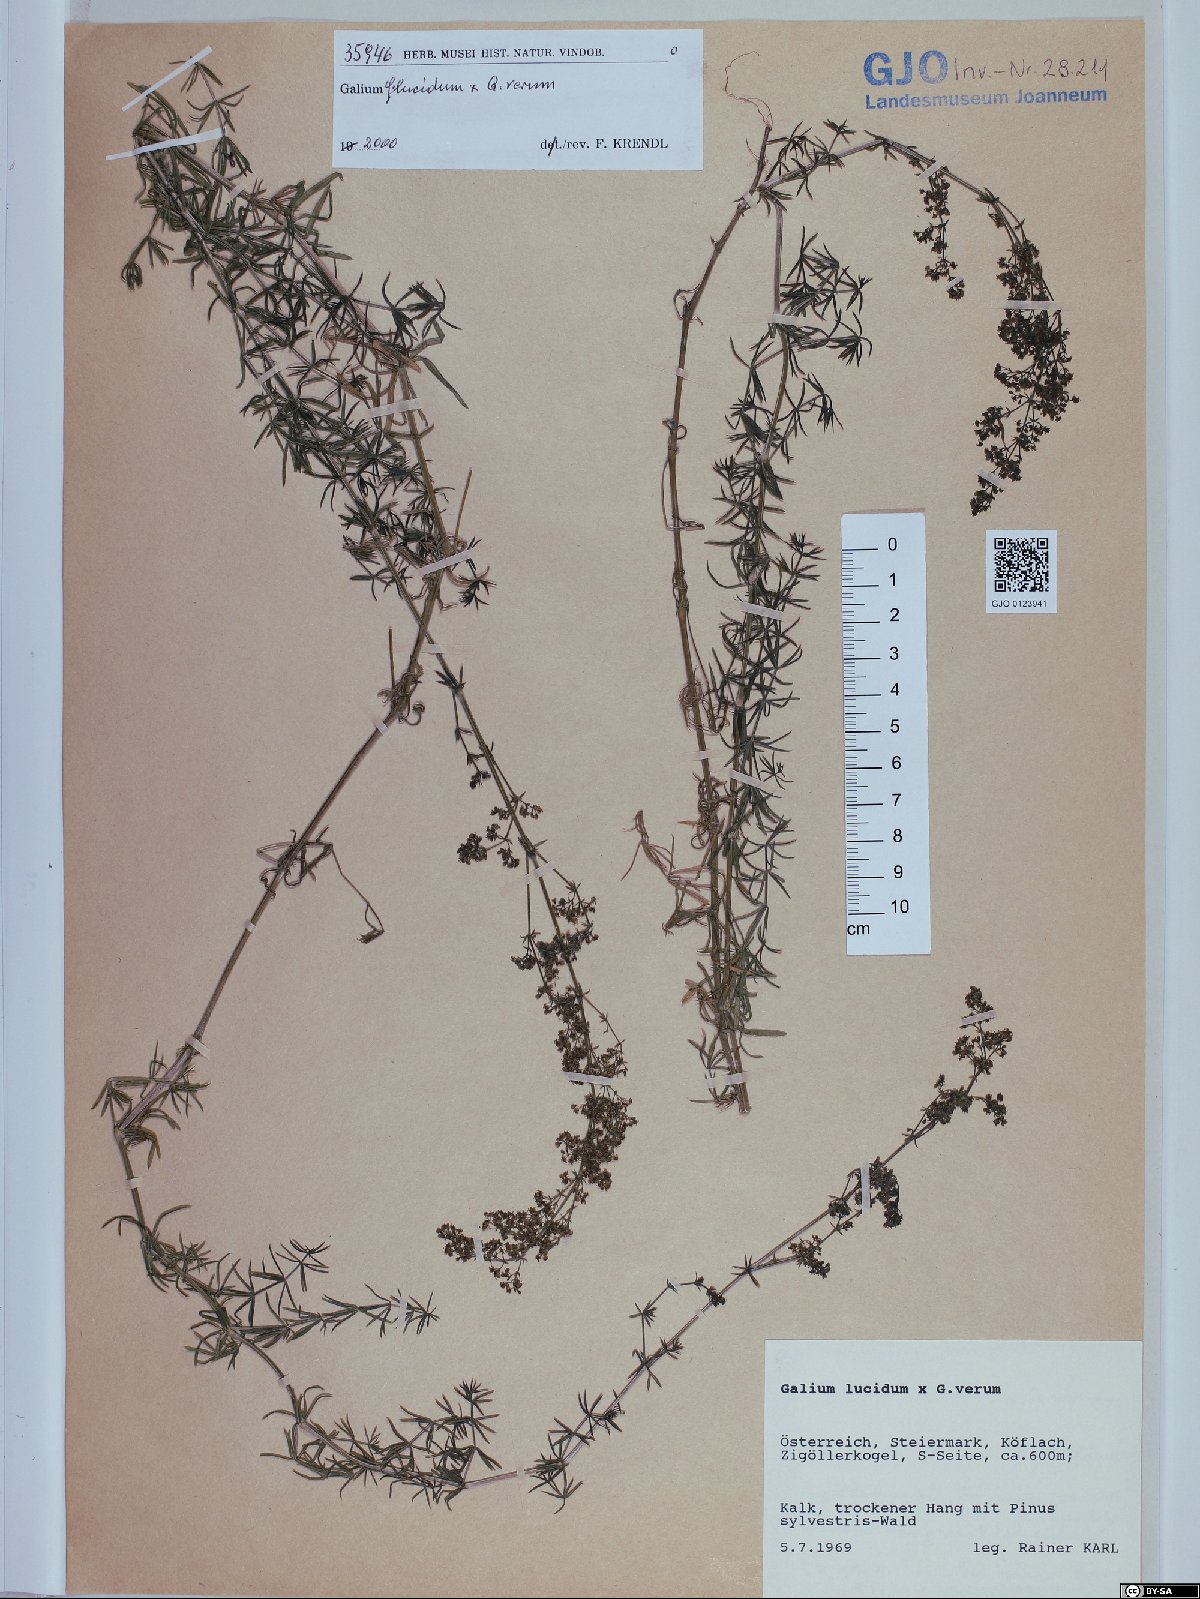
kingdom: Plantae
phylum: Tracheophyta
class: Magnoliopsida
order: Gentianales
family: Rubiaceae
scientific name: Rubiaceae
